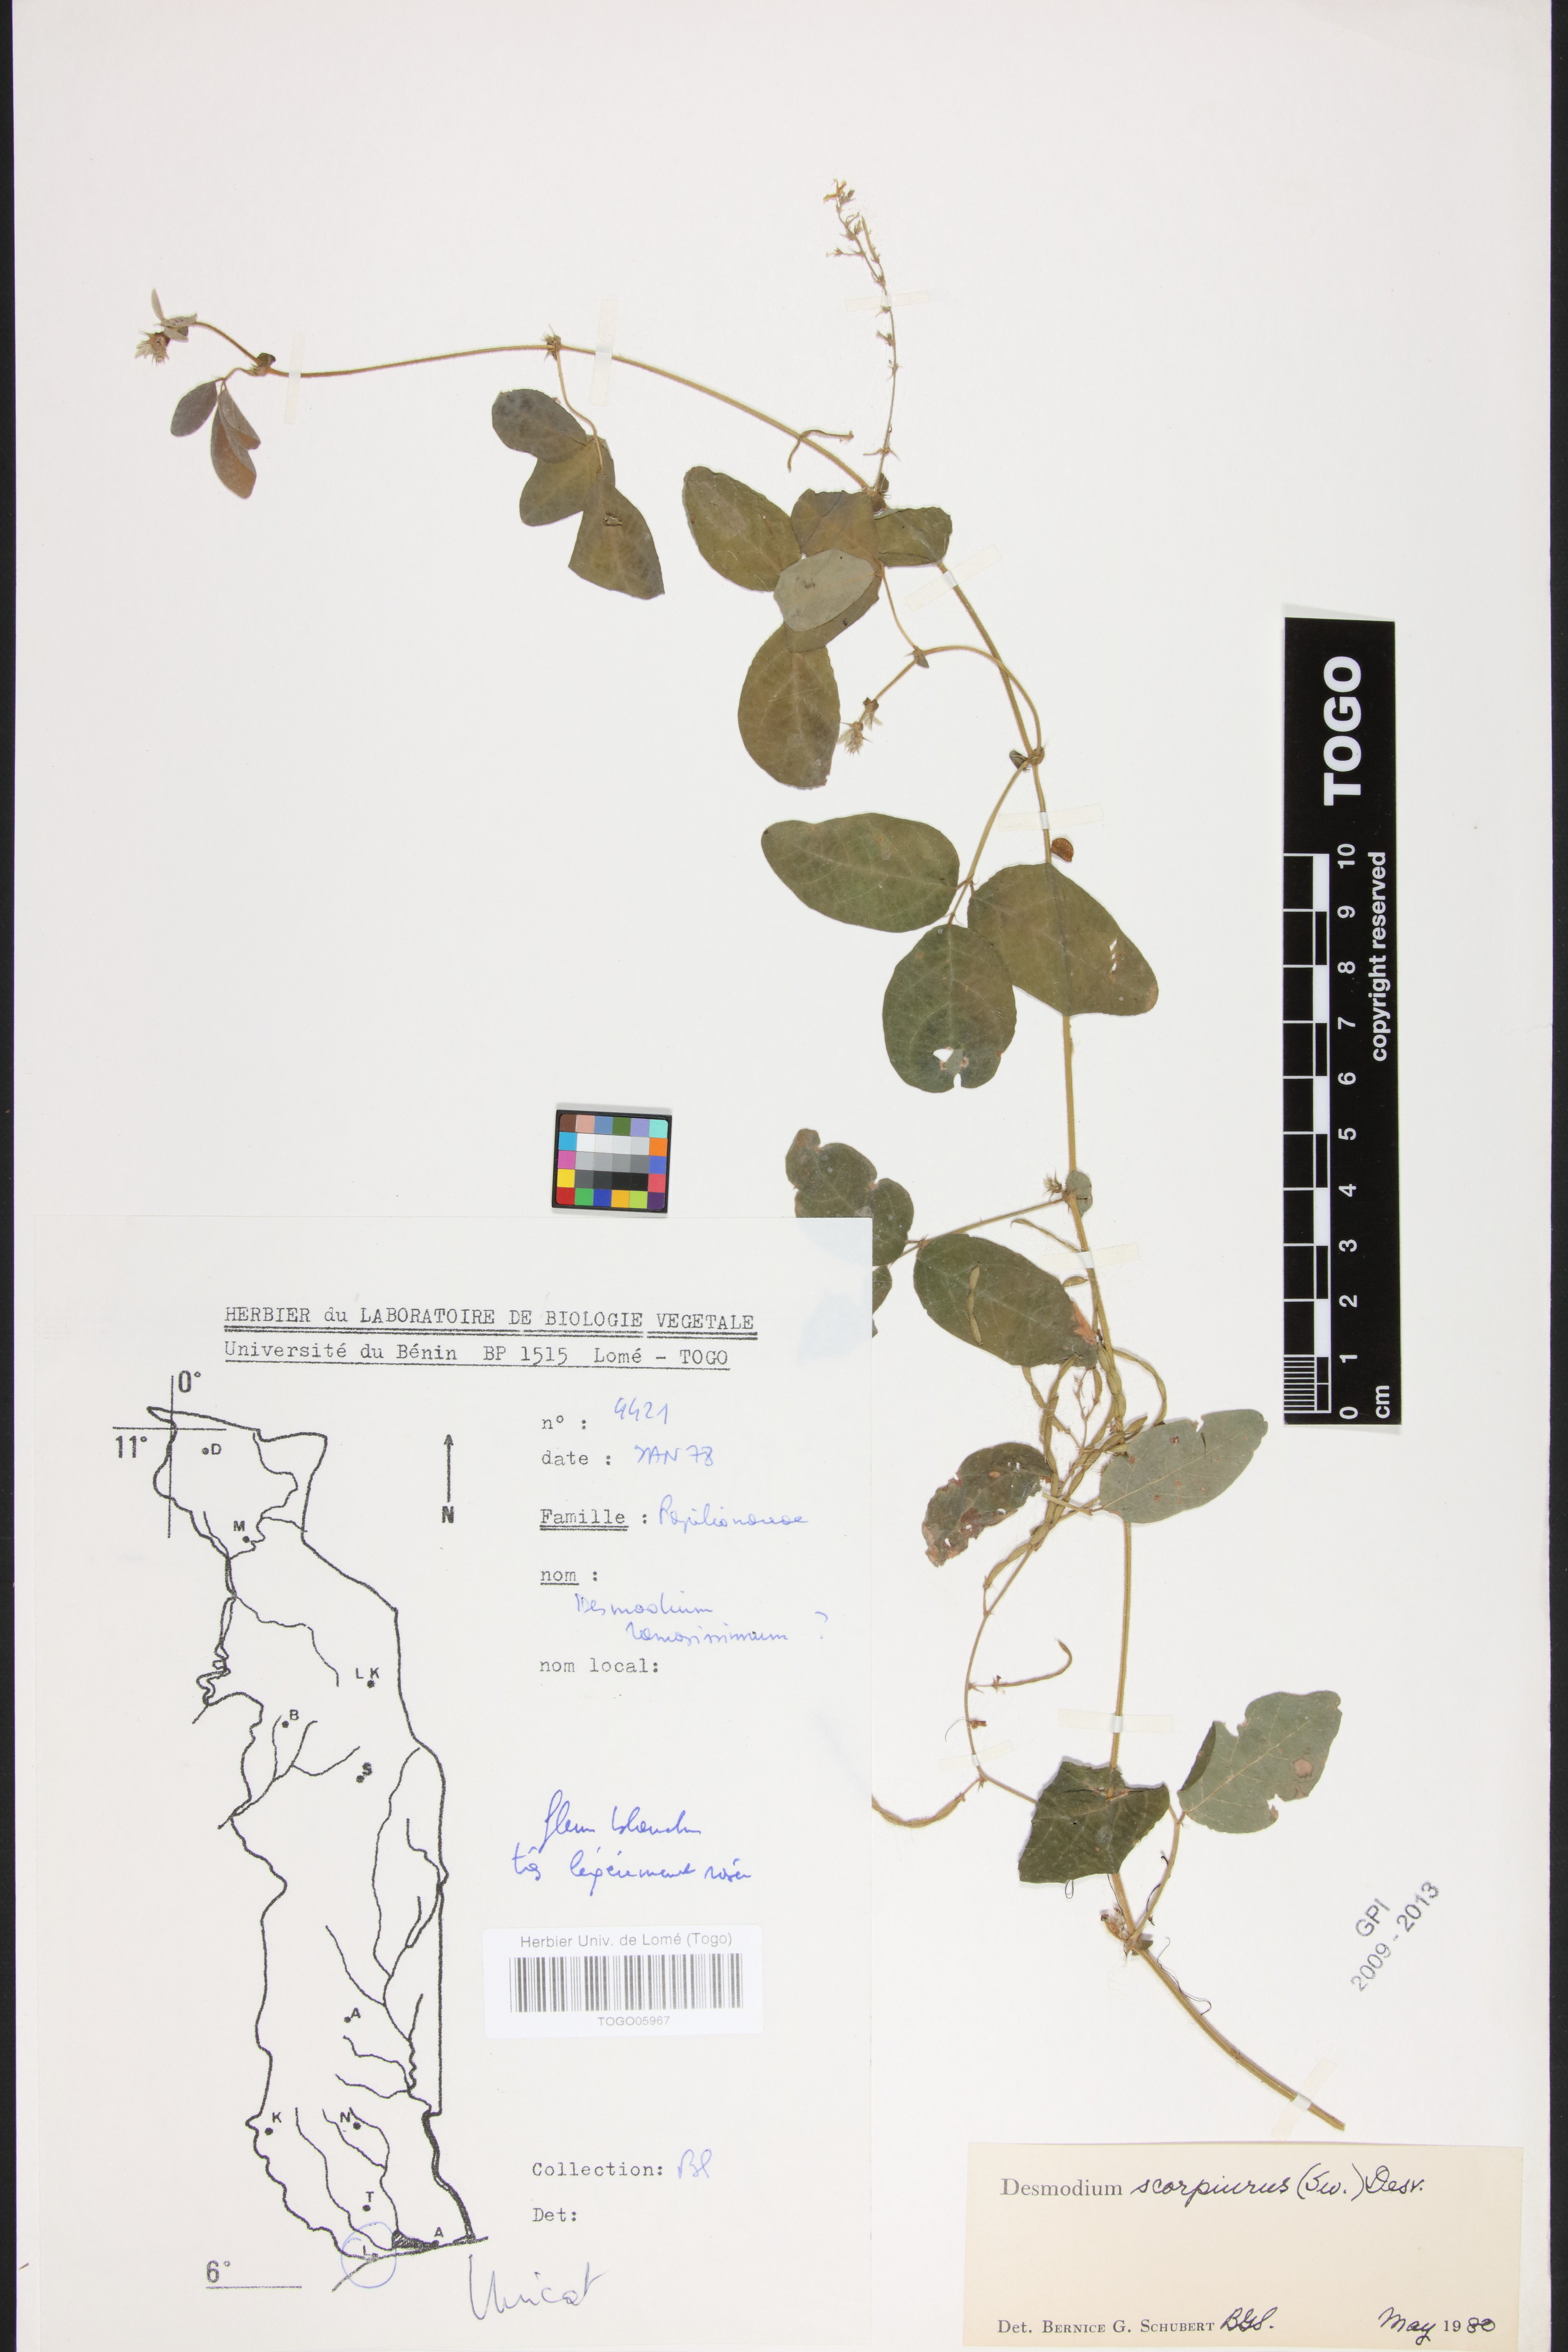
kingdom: Plantae
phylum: Tracheophyta
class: Magnoliopsida
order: Fabales
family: Fabaceae
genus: Desmodium
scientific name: Desmodium scorpiurus
